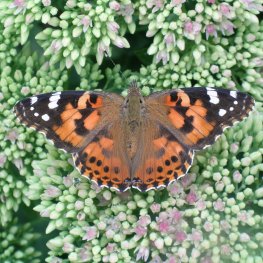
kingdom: Animalia
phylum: Arthropoda
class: Insecta
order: Lepidoptera
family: Nymphalidae
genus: Vanessa
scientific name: Vanessa cardui
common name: Painted Lady
